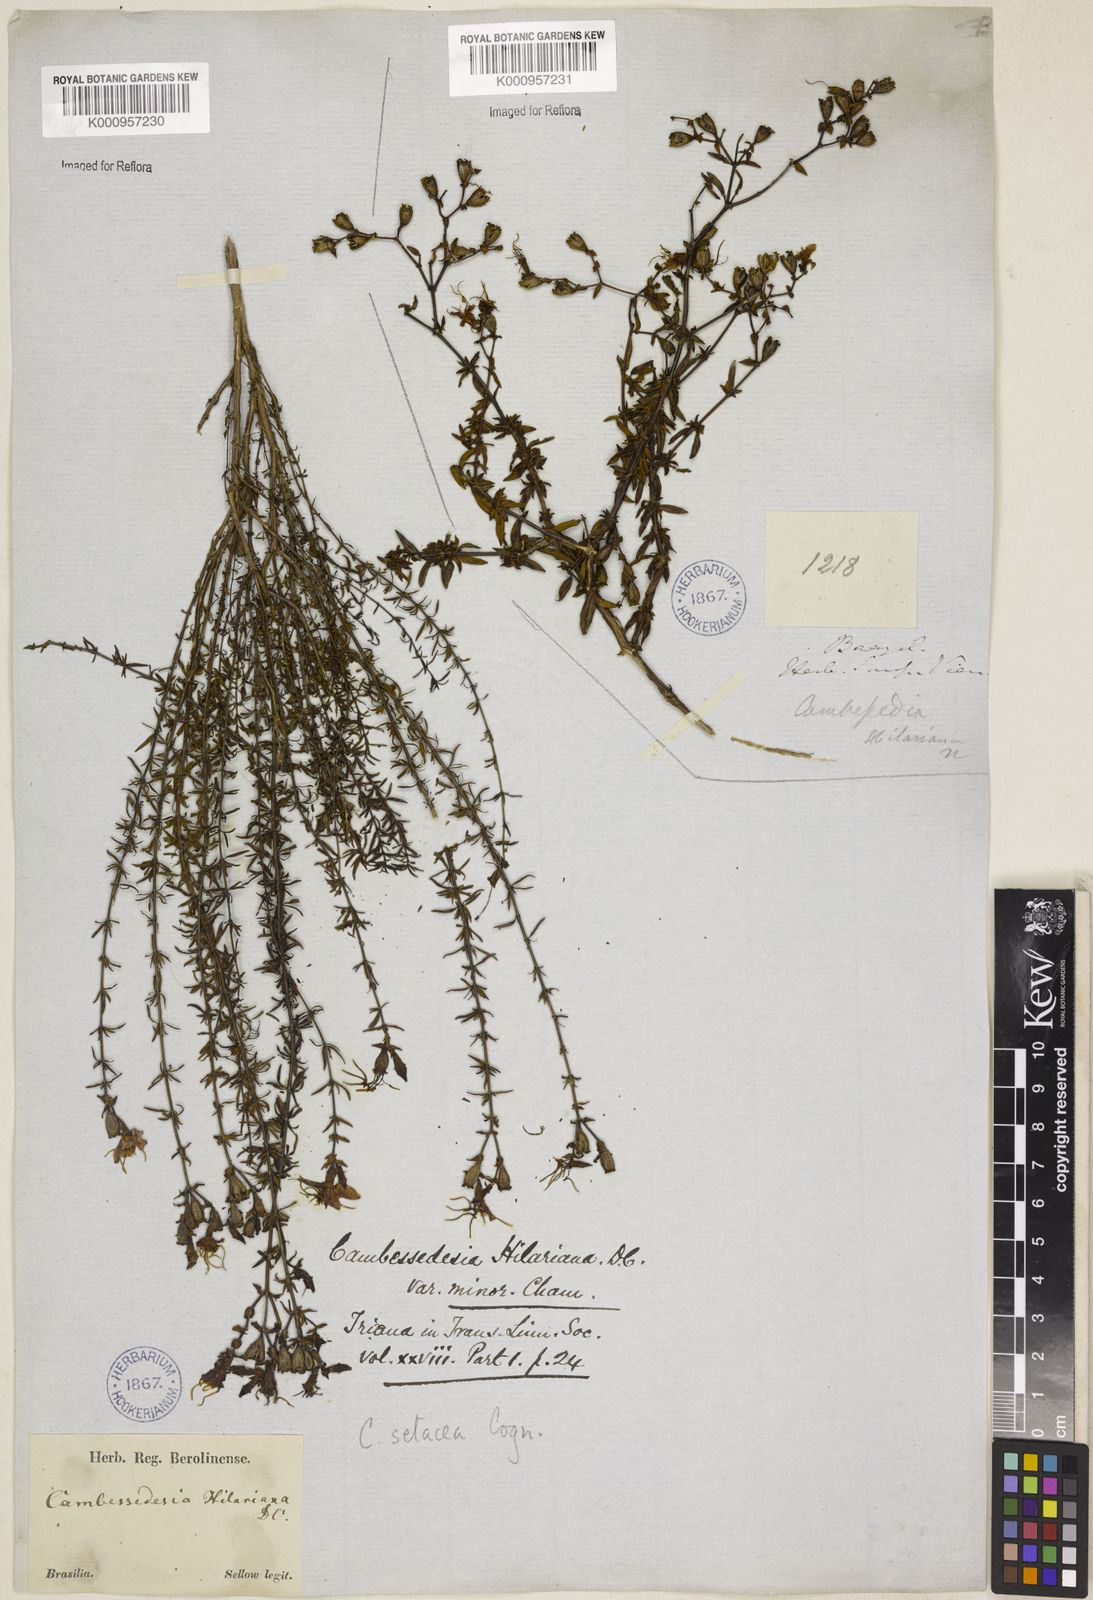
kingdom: Plantae
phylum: Tracheophyta
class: Magnoliopsida
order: Myrtales
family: Melastomataceae
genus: Cambessedesia
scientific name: Cambessedesia hilariana
